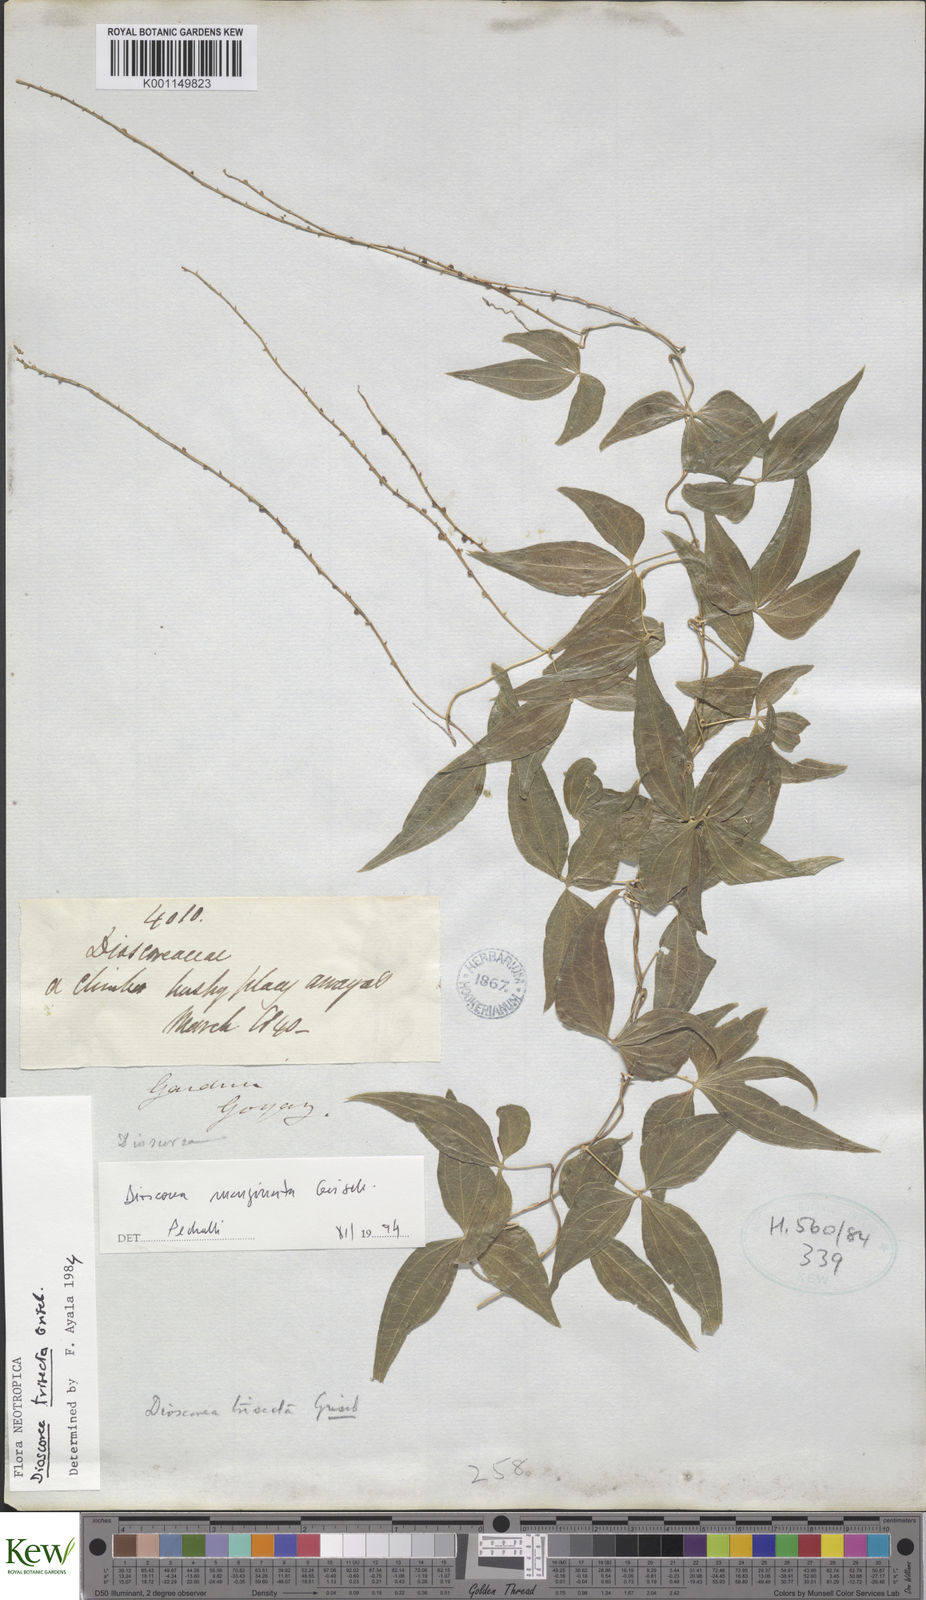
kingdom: Plantae
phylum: Tracheophyta
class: Liliopsida
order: Dioscoreales
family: Dioscoreaceae
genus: Dioscorea
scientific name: Dioscorea trisecta
